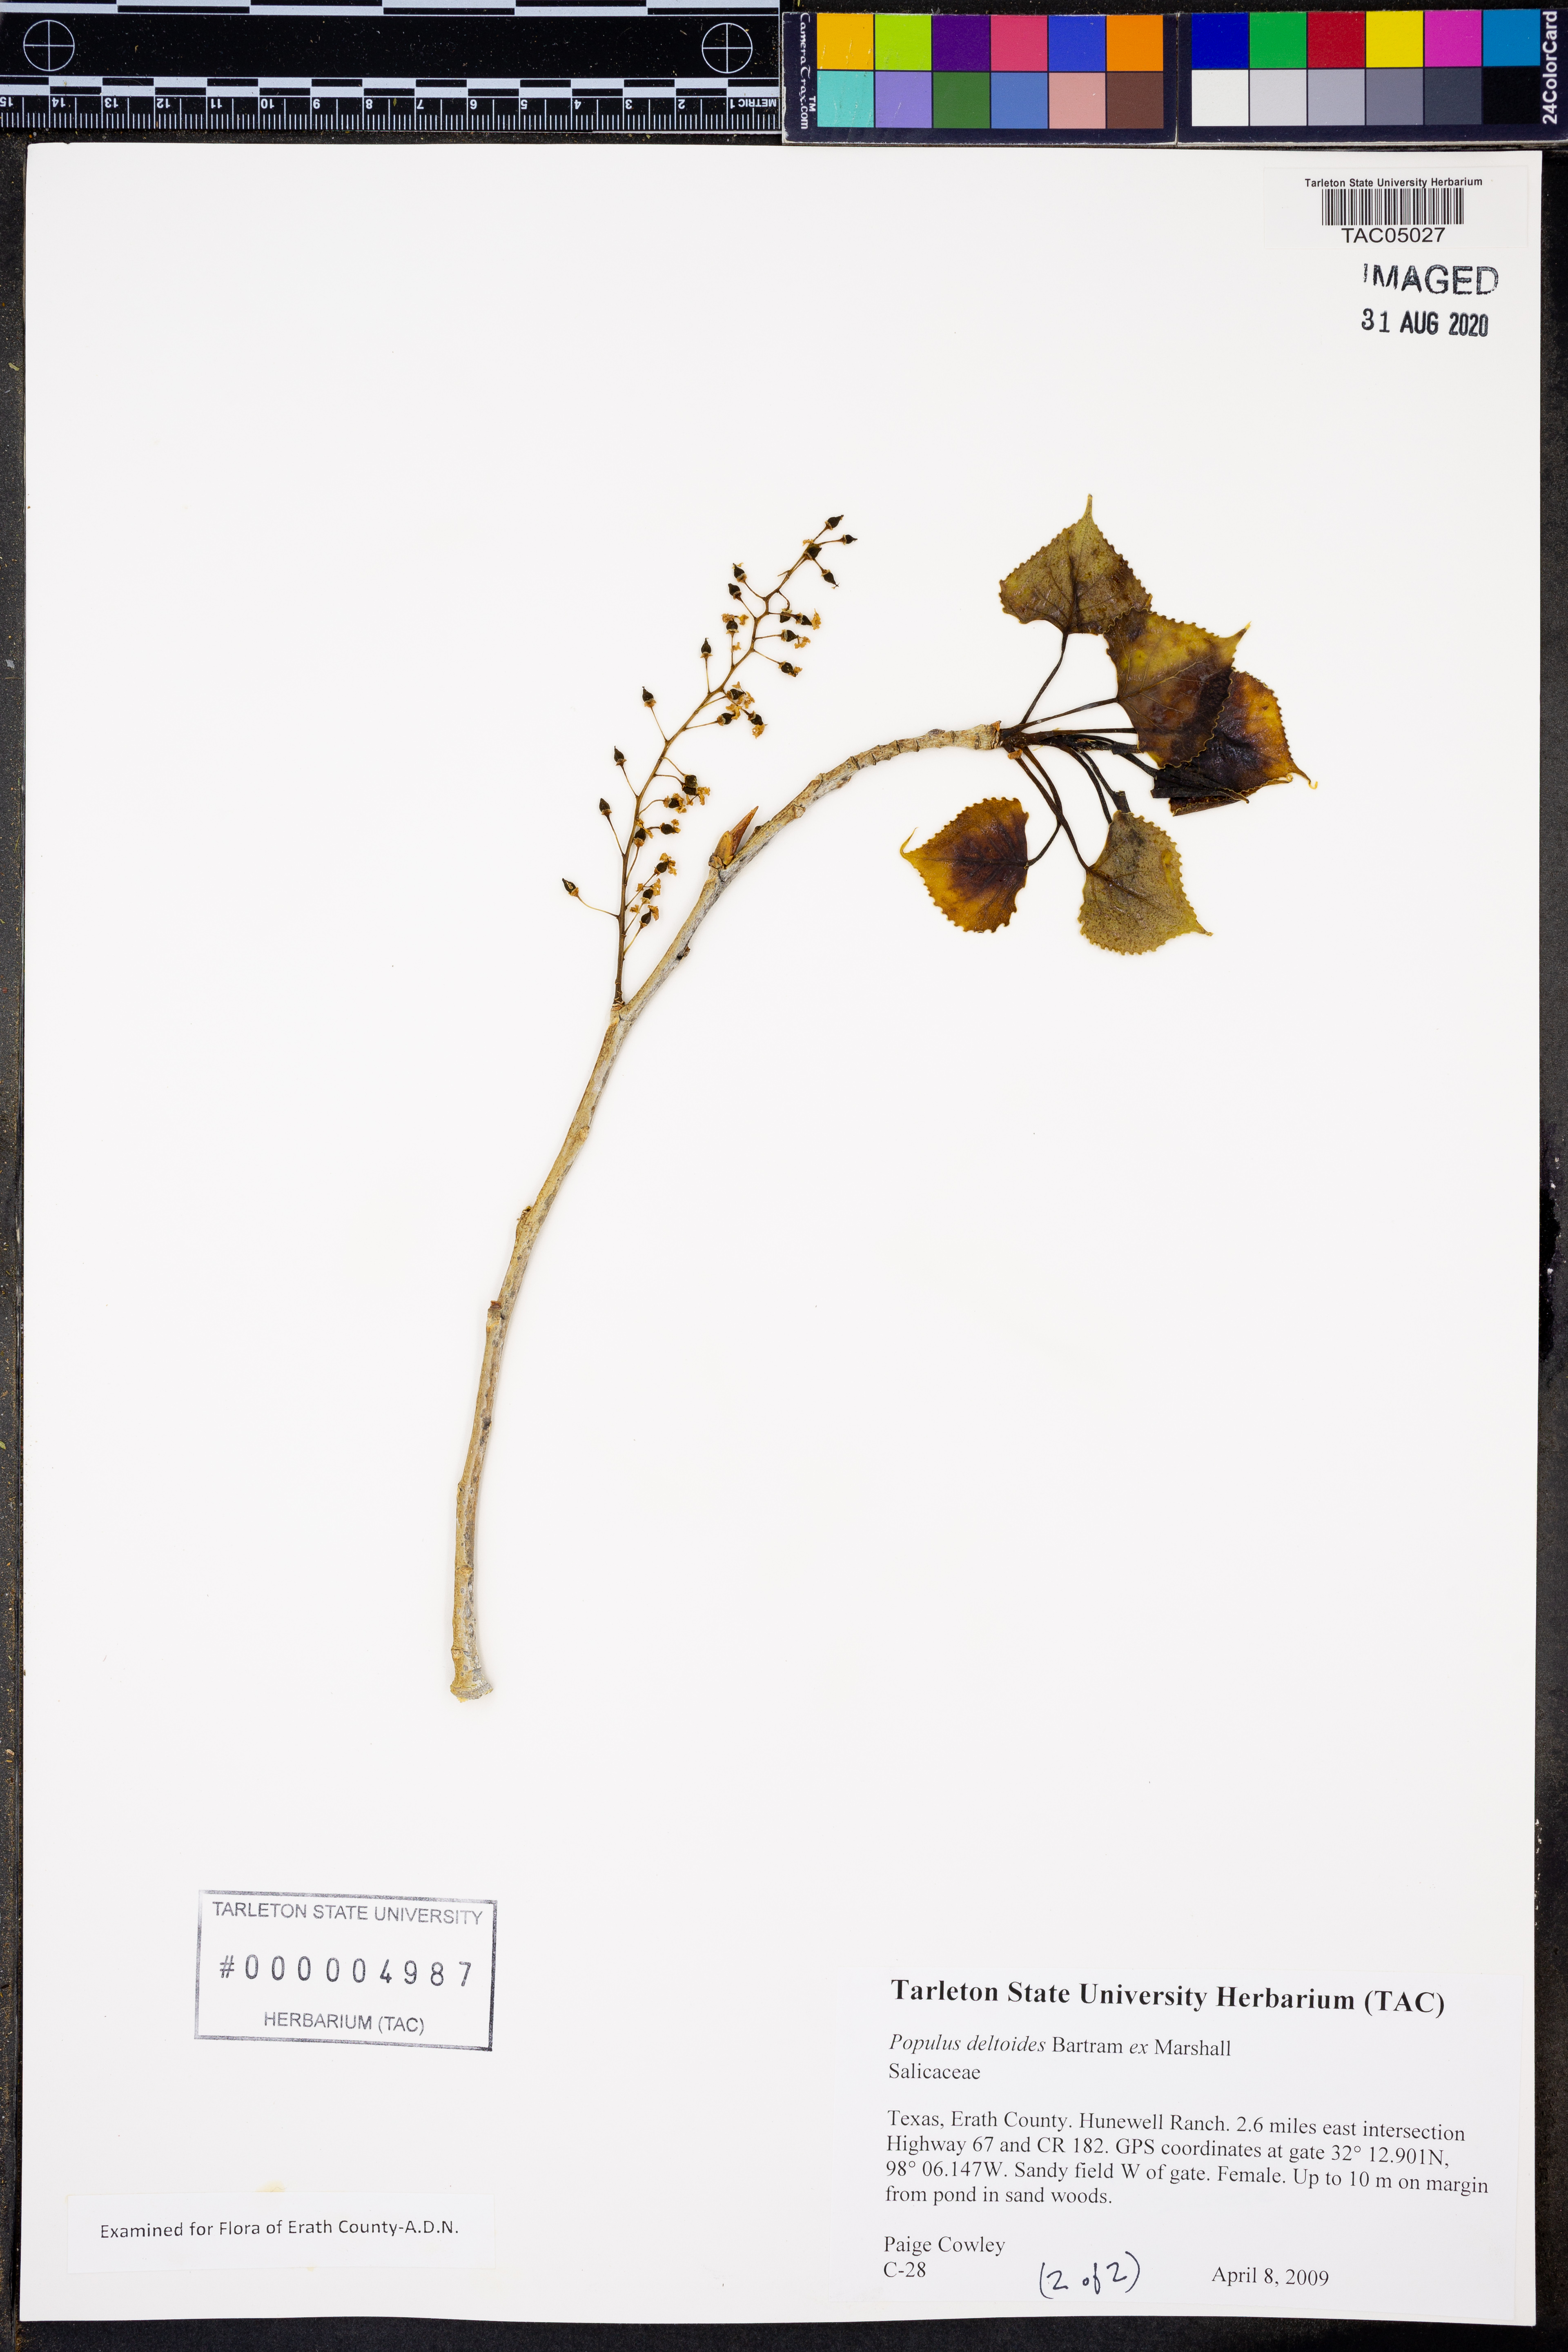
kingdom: Plantae
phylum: Tracheophyta
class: Magnoliopsida
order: Malpighiales
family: Salicaceae
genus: Populus
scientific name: Populus deltoides
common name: Eastern cottonwood
